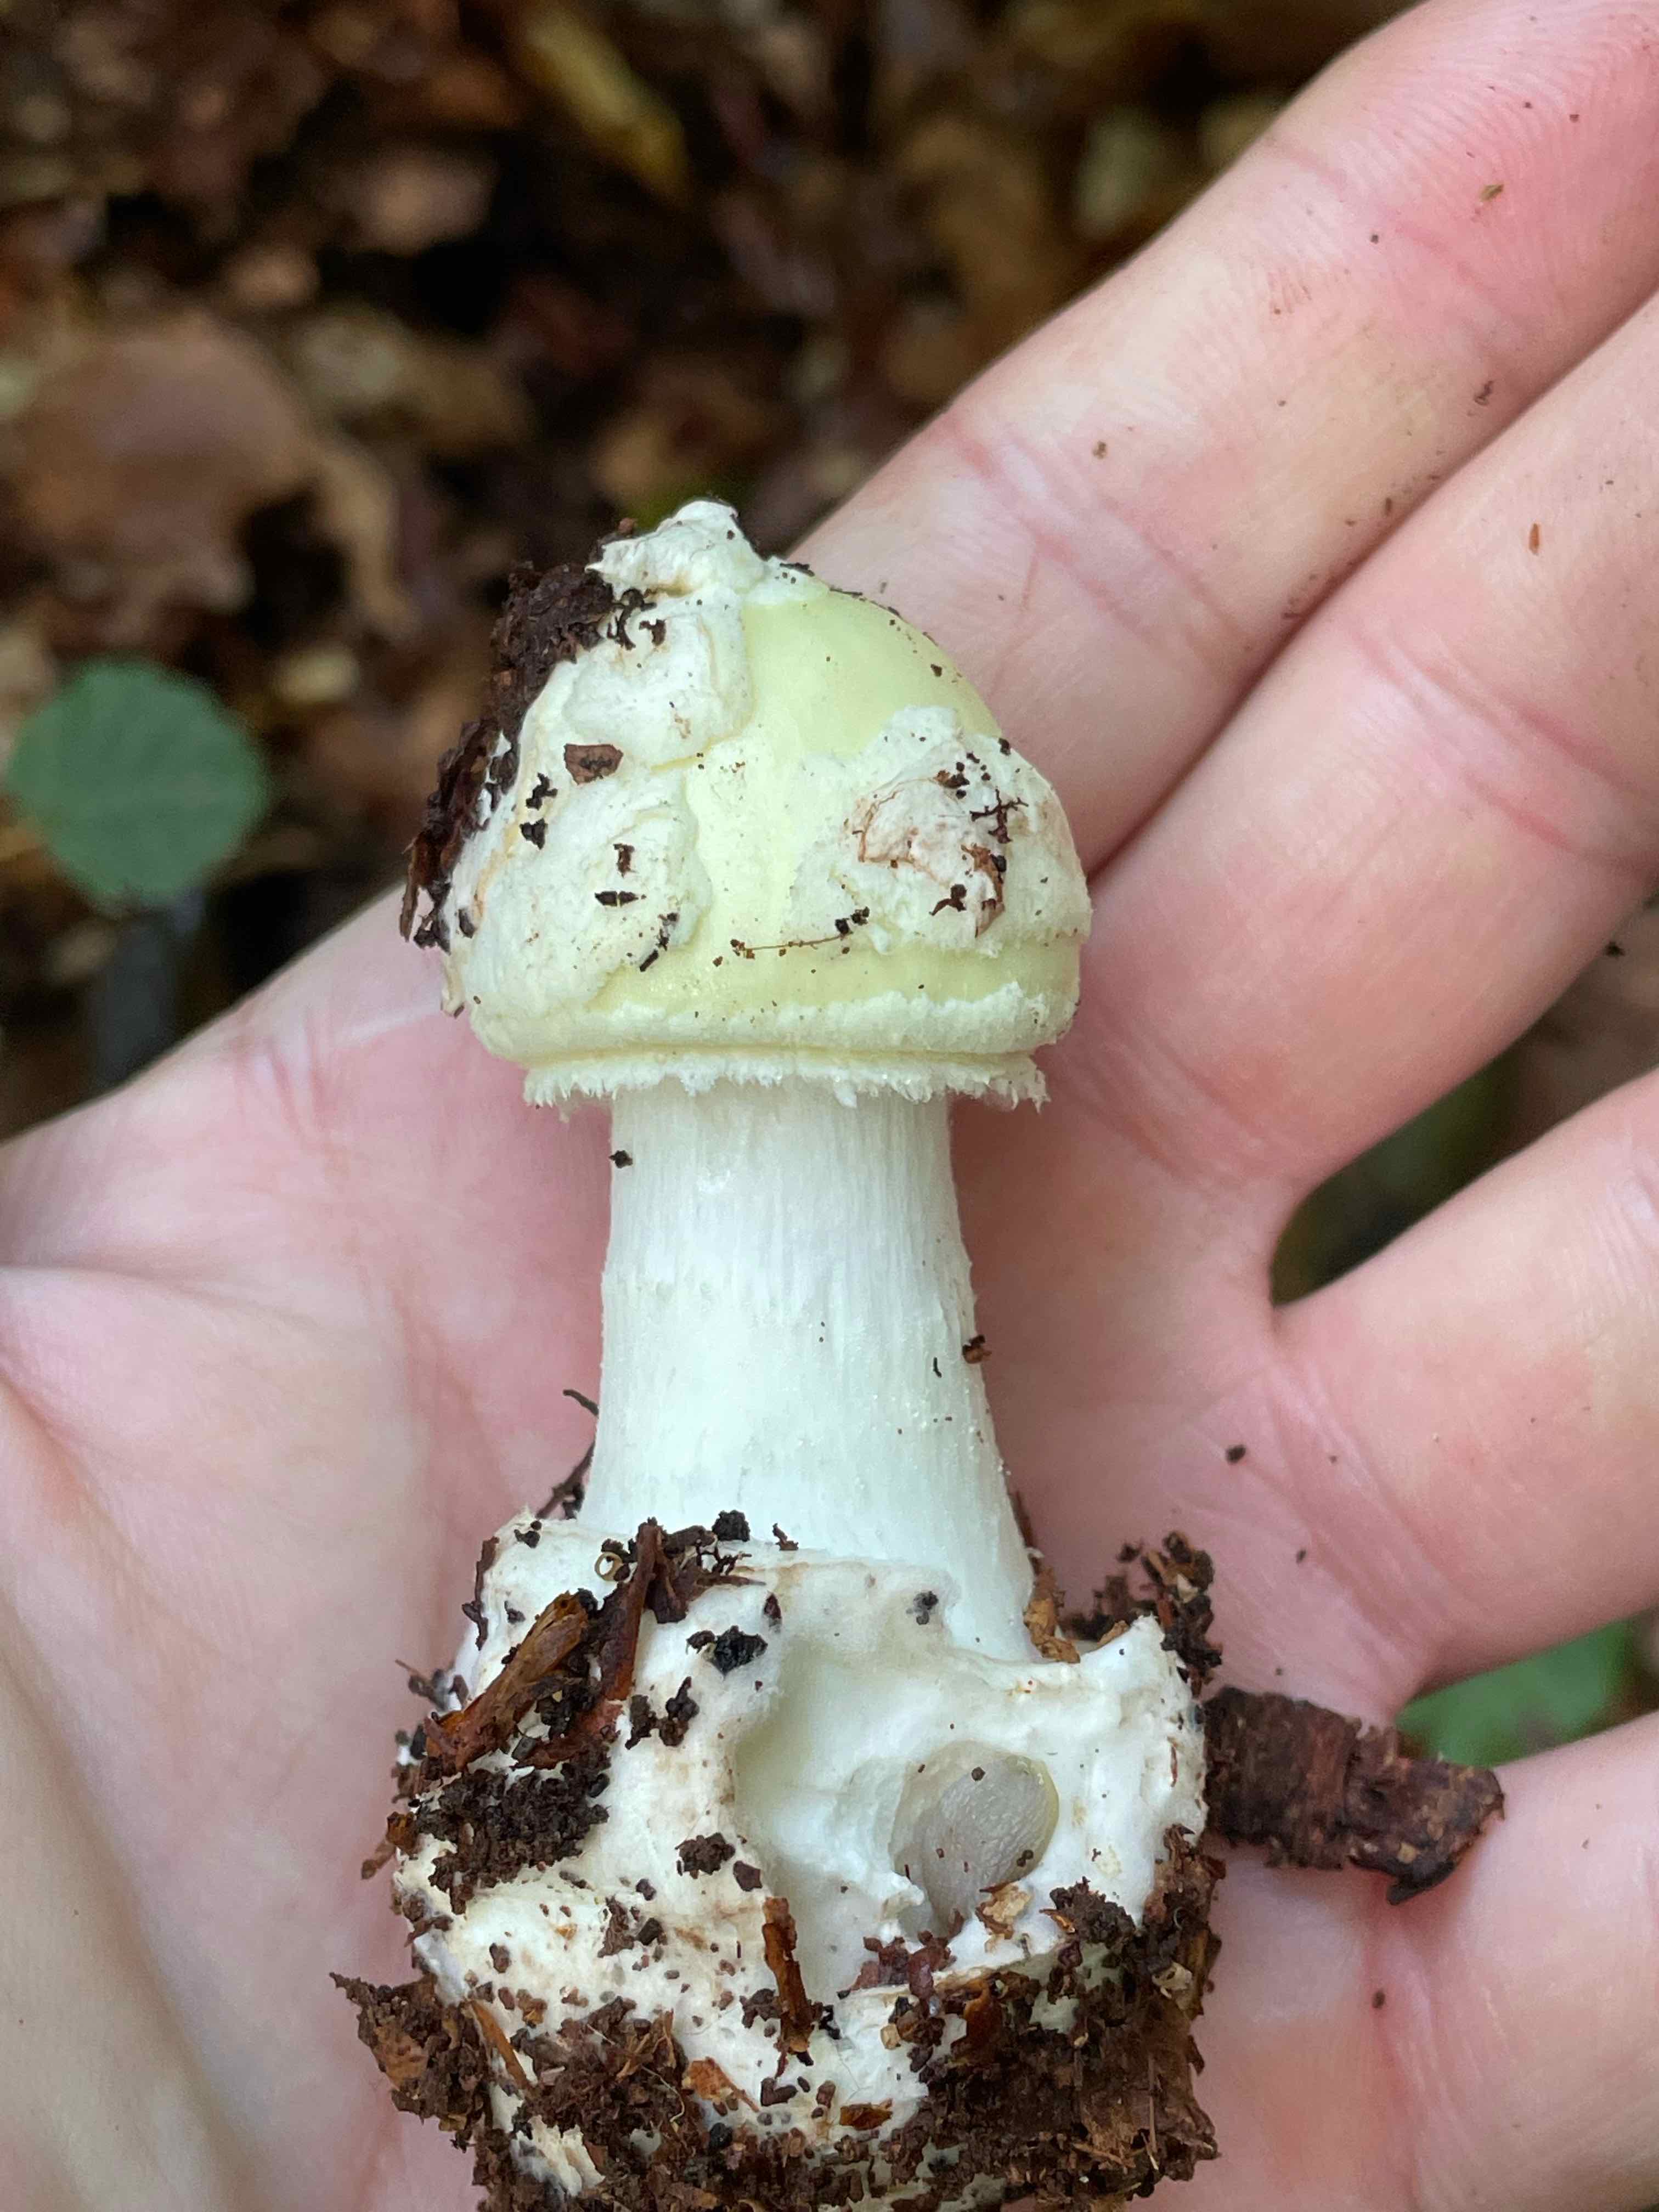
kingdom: Fungi
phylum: Basidiomycota
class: Agaricomycetes
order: Agaricales
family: Amanitaceae
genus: Amanita
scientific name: Amanita citrina
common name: kugleknoldet fluesvamp
